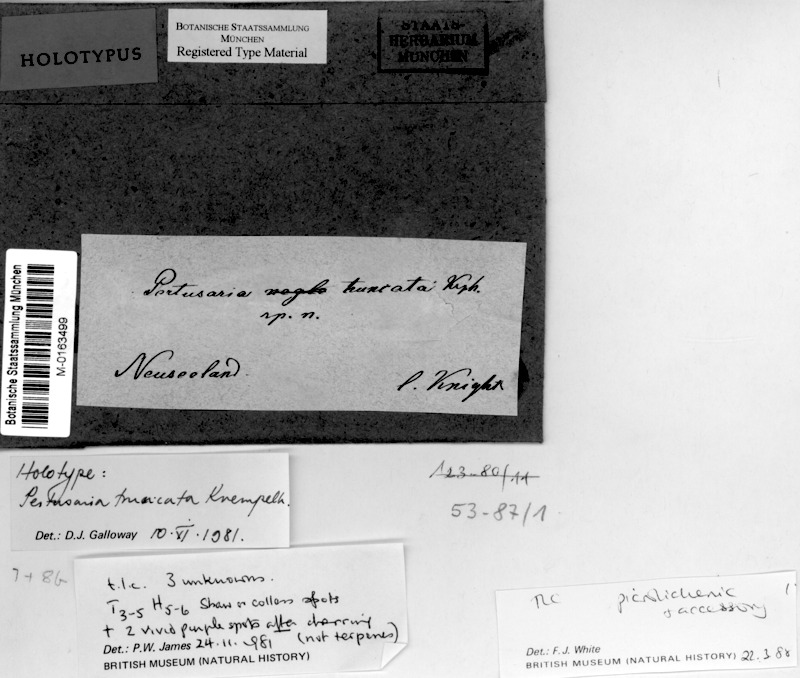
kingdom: Fungi
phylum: Ascomycota
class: Lecanoromycetes
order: Pertusariales
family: Pertusariaceae
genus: Lepra
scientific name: Lepra truncata
